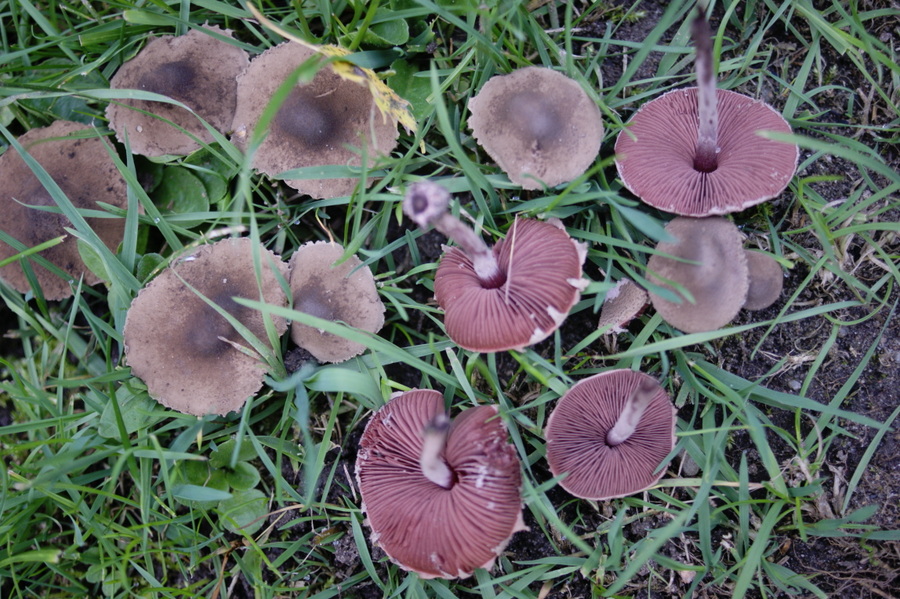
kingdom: Fungi
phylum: Basidiomycota
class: Agaricomycetes
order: Agaricales
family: Agaricaceae
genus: Melanophyllum
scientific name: Melanophyllum haematospermum
